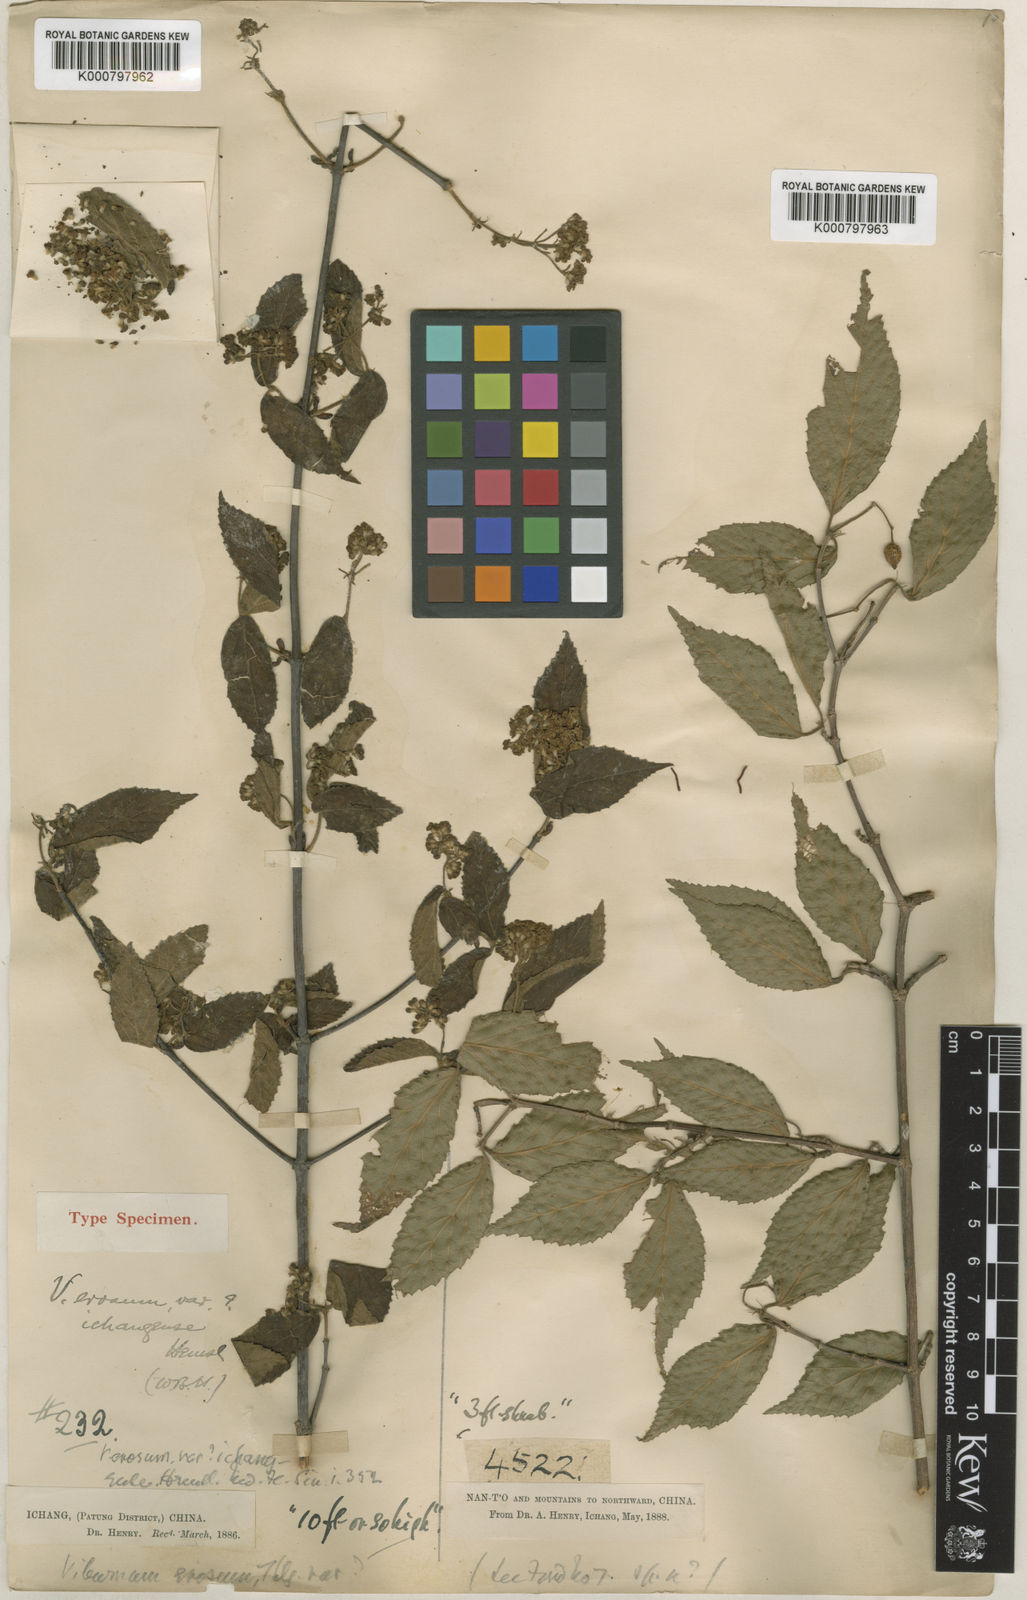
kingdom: Plantae
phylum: Tracheophyta
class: Magnoliopsida
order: Dipsacales
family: Viburnaceae
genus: Viburnum
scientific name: Viburnum erosum
